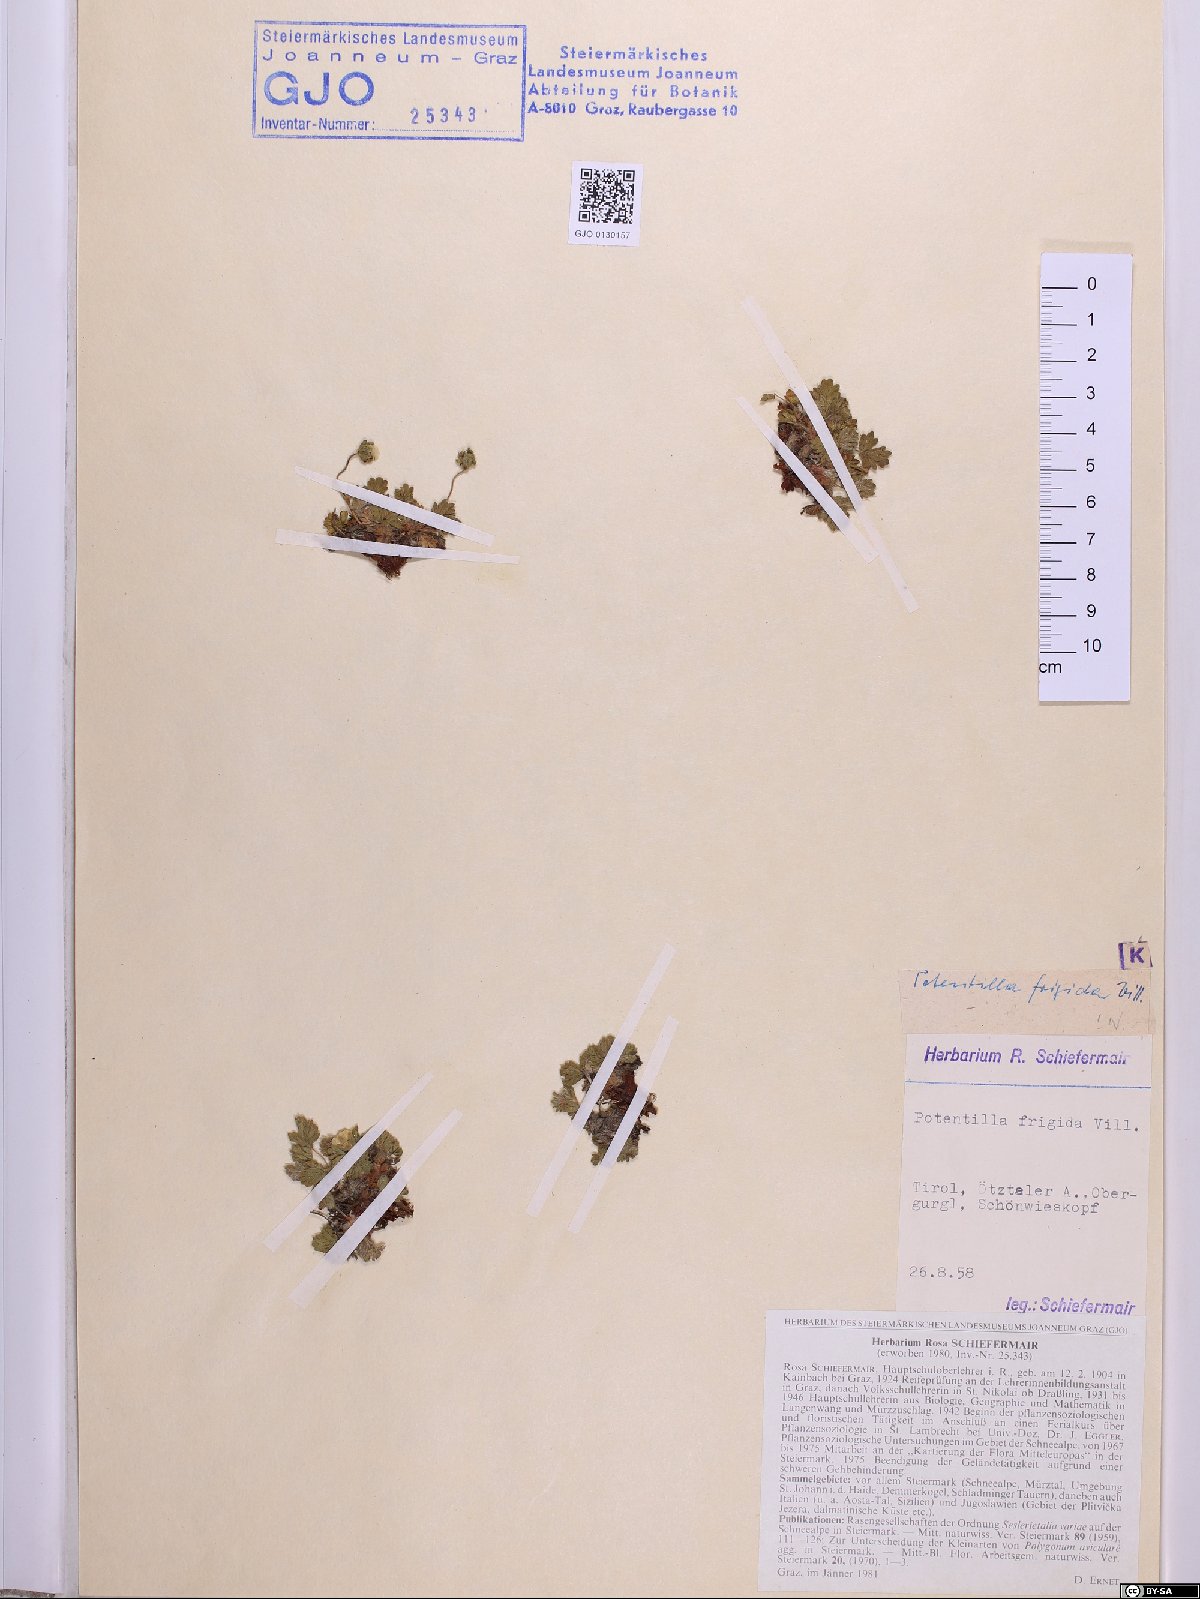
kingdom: Plantae
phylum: Tracheophyta
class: Magnoliopsida
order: Rosales
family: Rosaceae
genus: Potentilla
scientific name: Potentilla frigida
